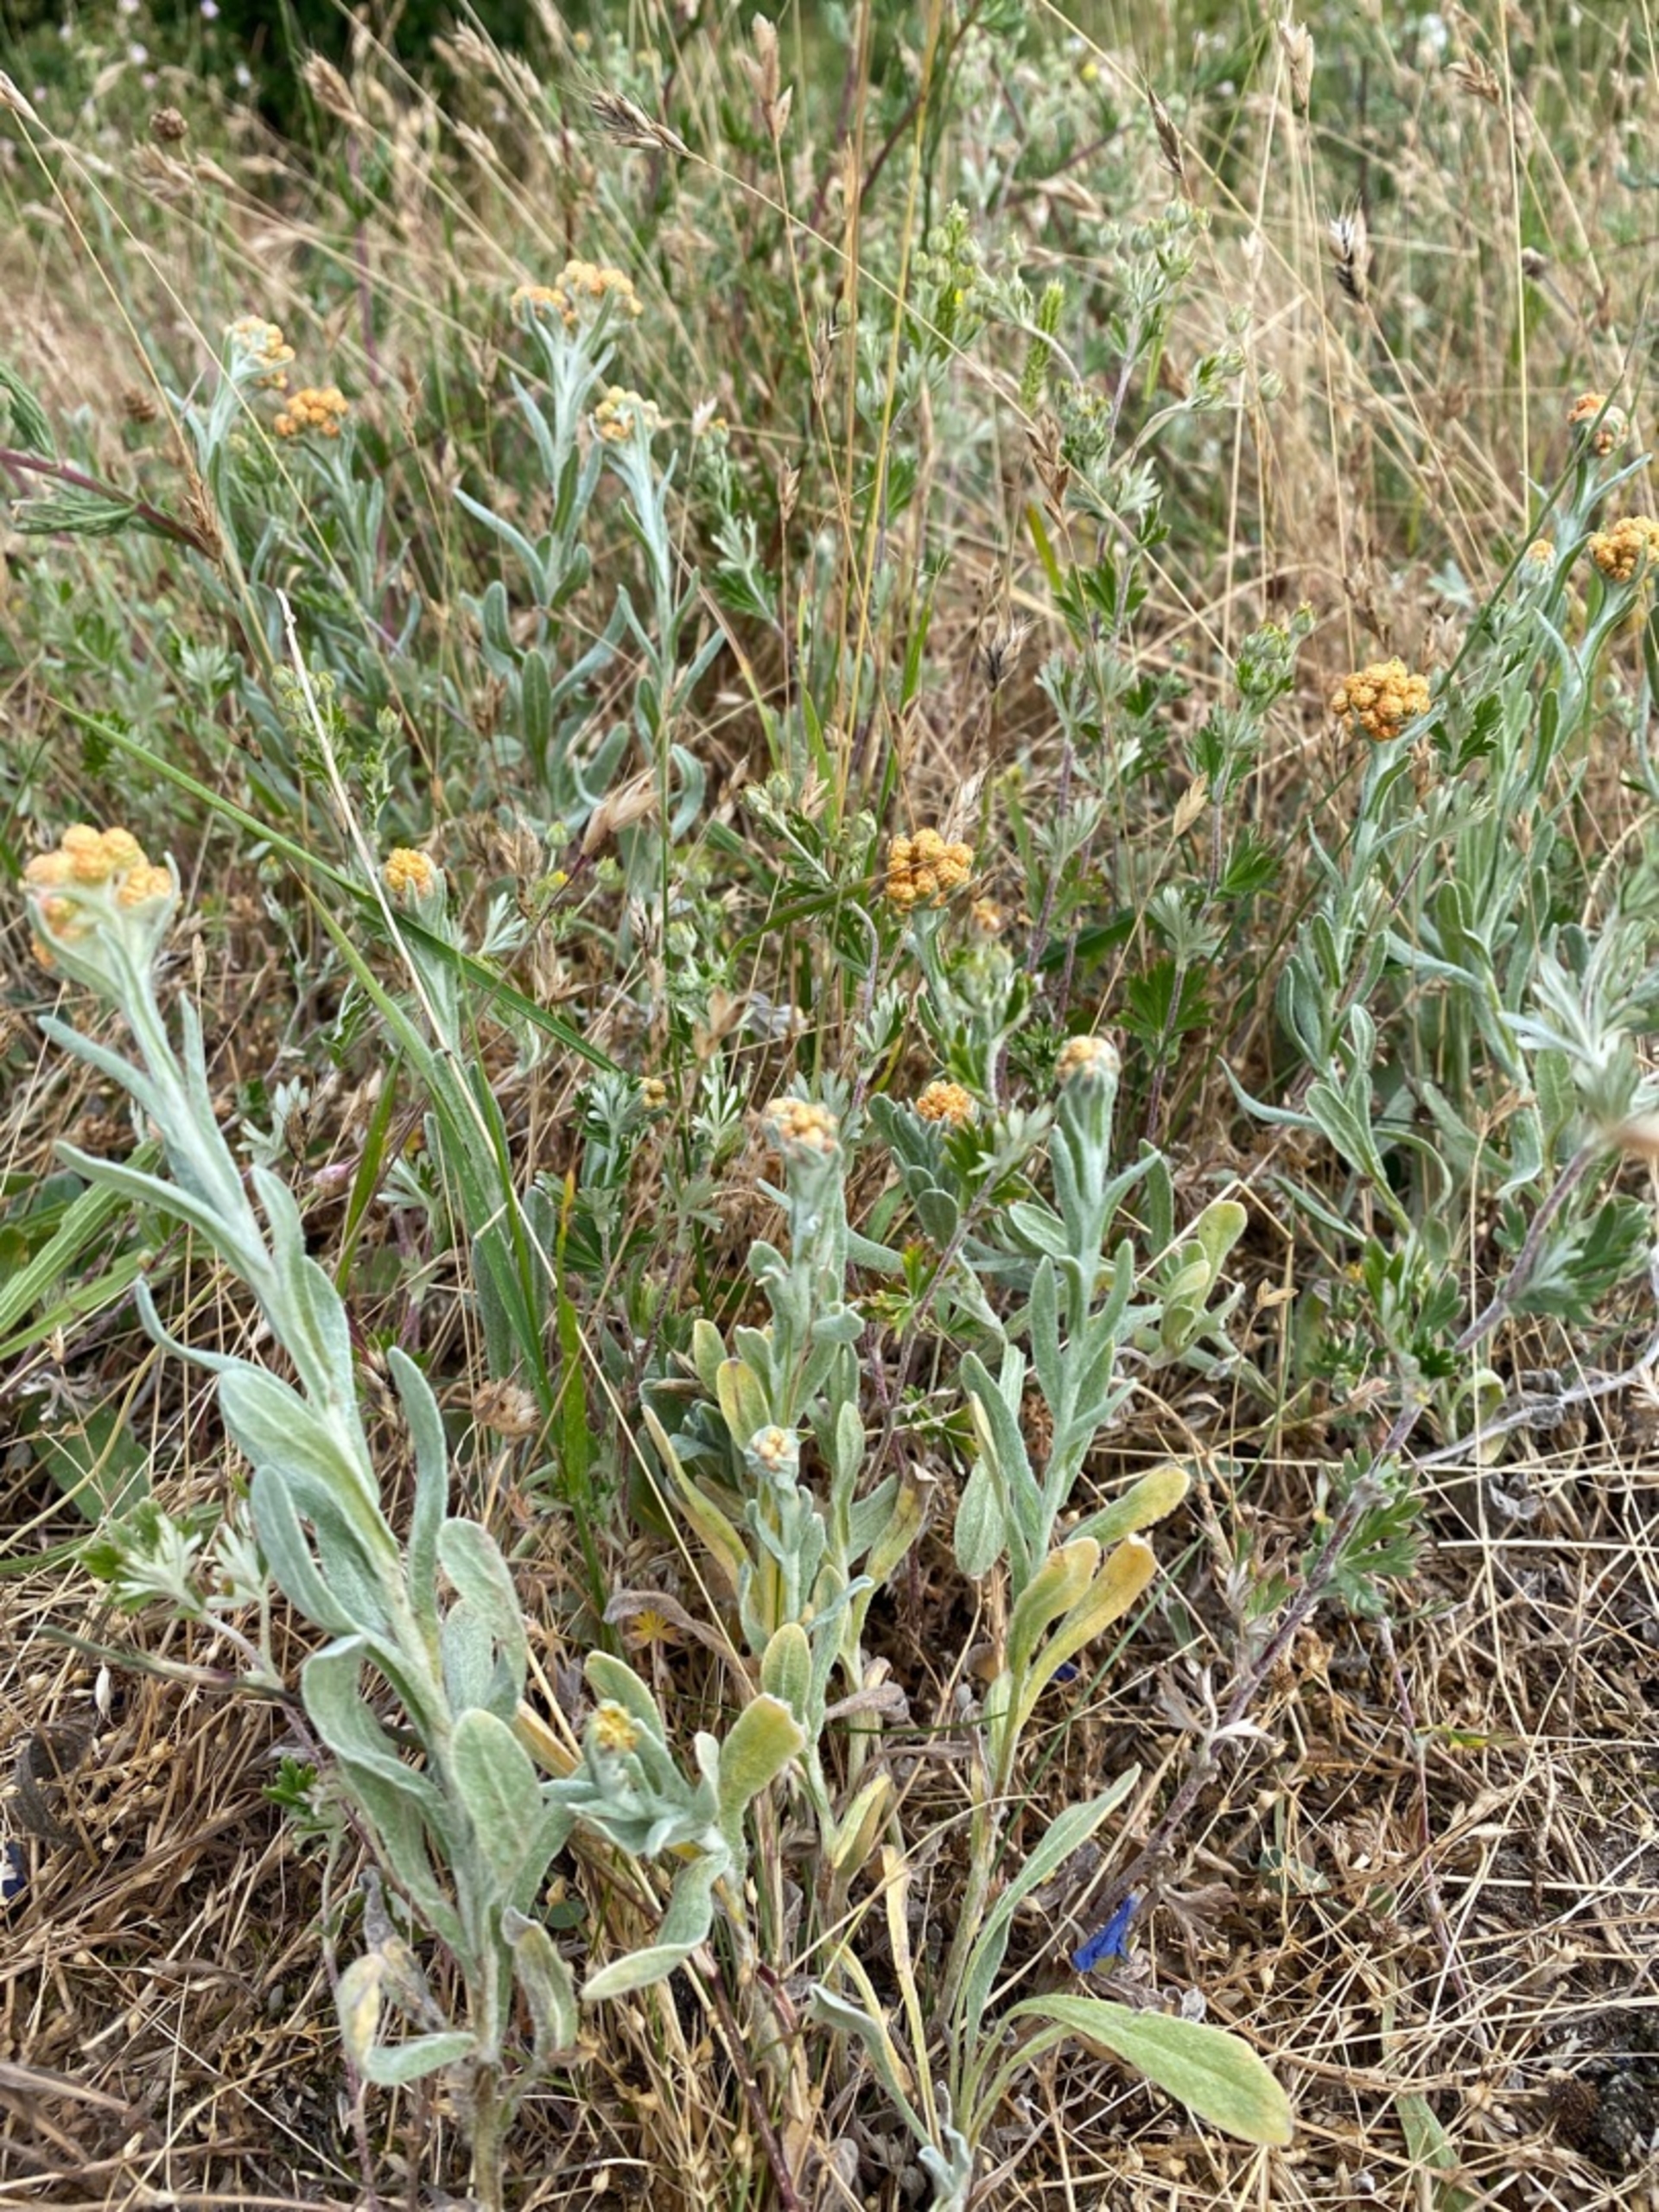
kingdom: Plantae
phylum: Tracheophyta
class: Magnoliopsida
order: Asterales
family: Asteraceae
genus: Helichrysum
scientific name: Helichrysum arenarium
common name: Gul evighedsblomst
